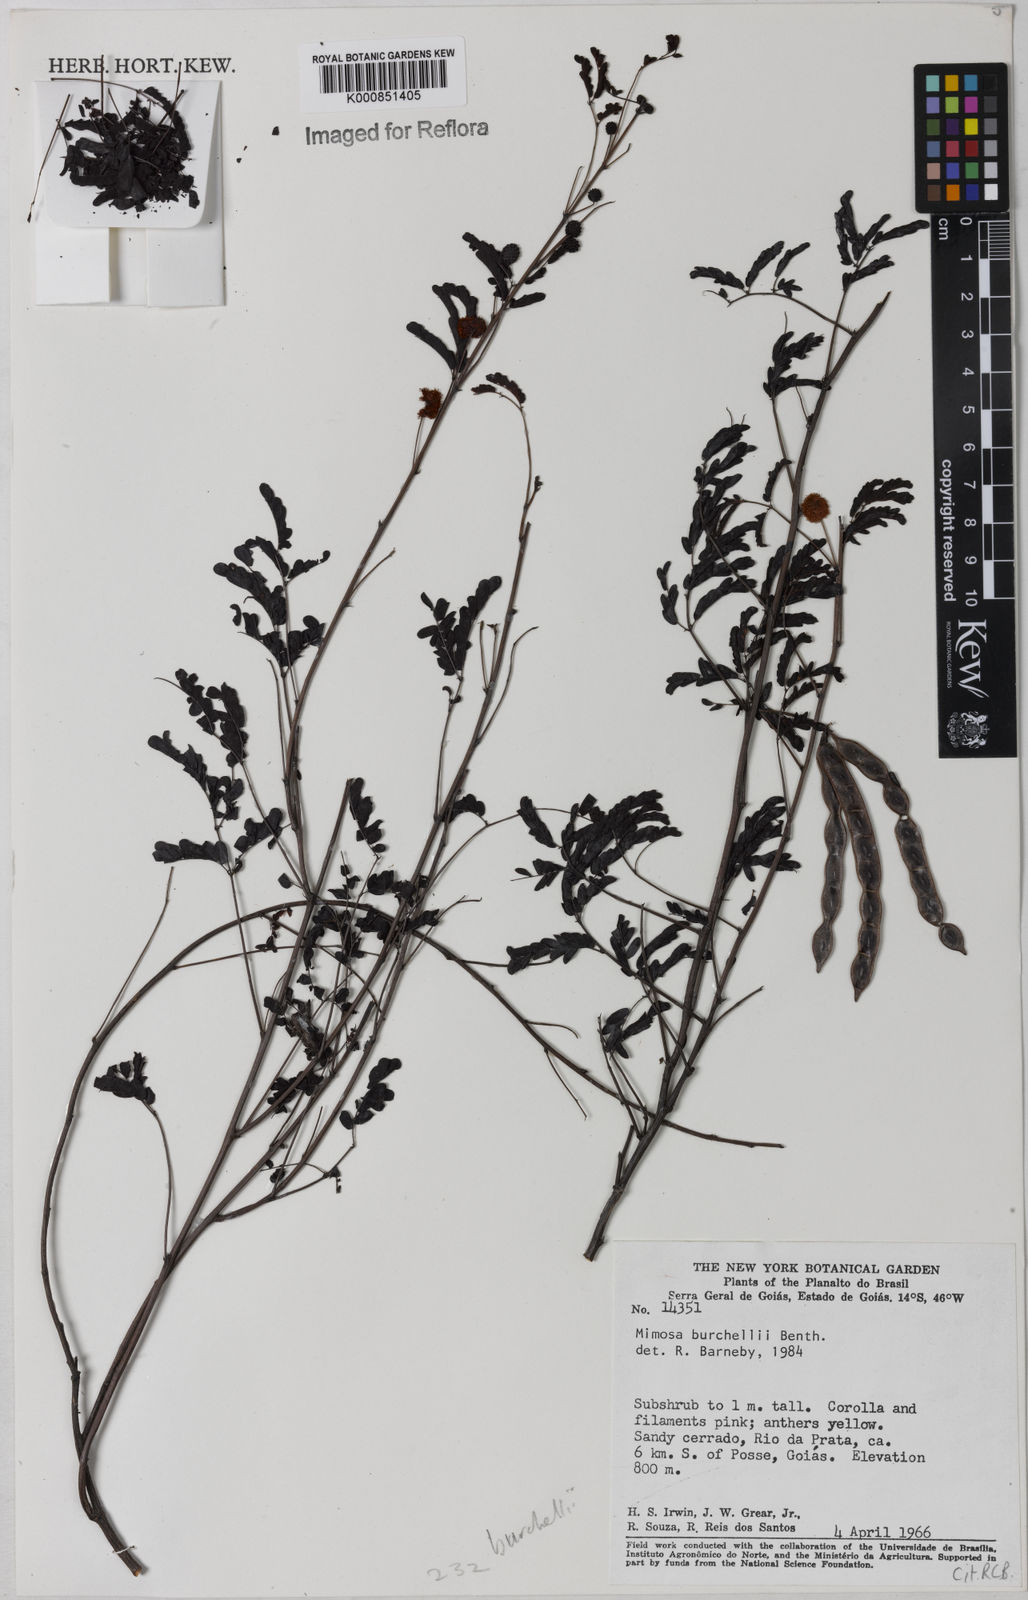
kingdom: Plantae
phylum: Tracheophyta
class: Magnoliopsida
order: Fabales
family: Fabaceae
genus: Mimosa
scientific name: Mimosa burchellii
